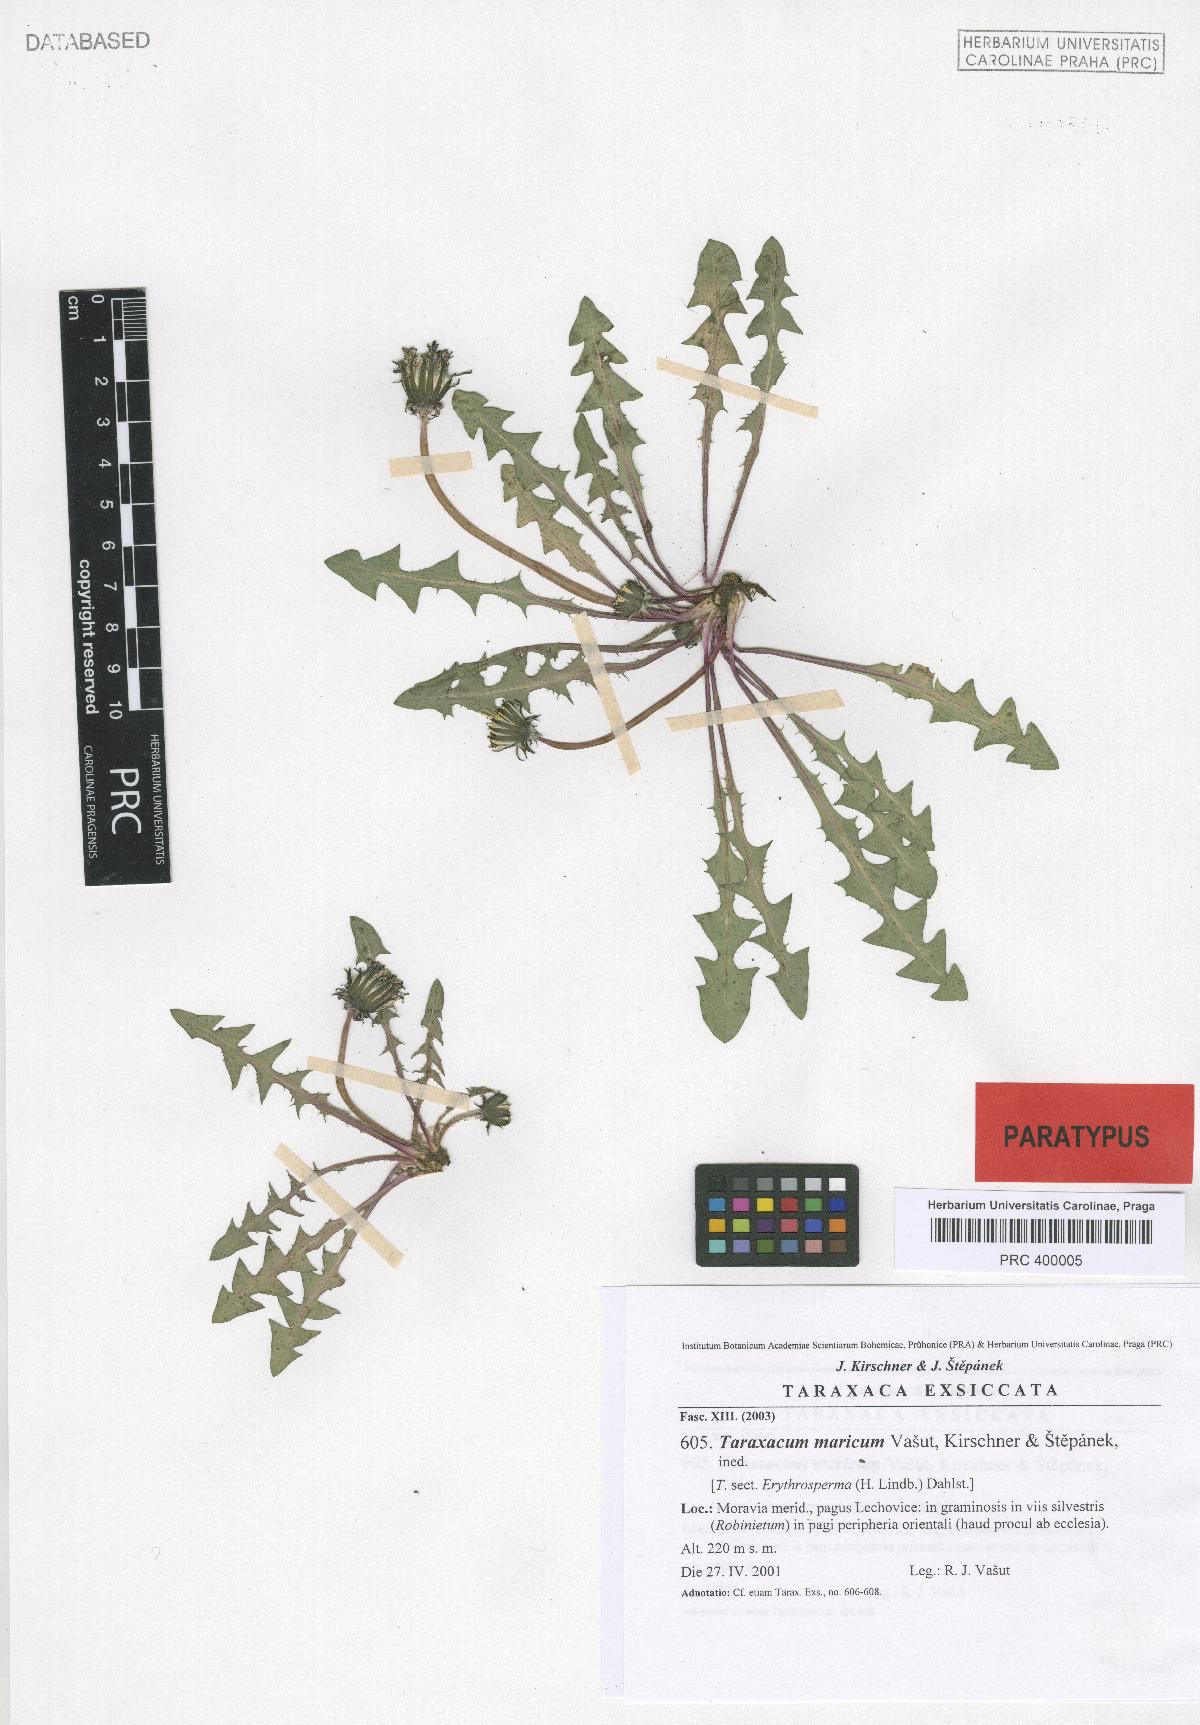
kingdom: Plantae
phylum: Tracheophyta
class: Magnoliopsida
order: Asterales
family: Asteraceae
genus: Taraxacum
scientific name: Taraxacum maricum
